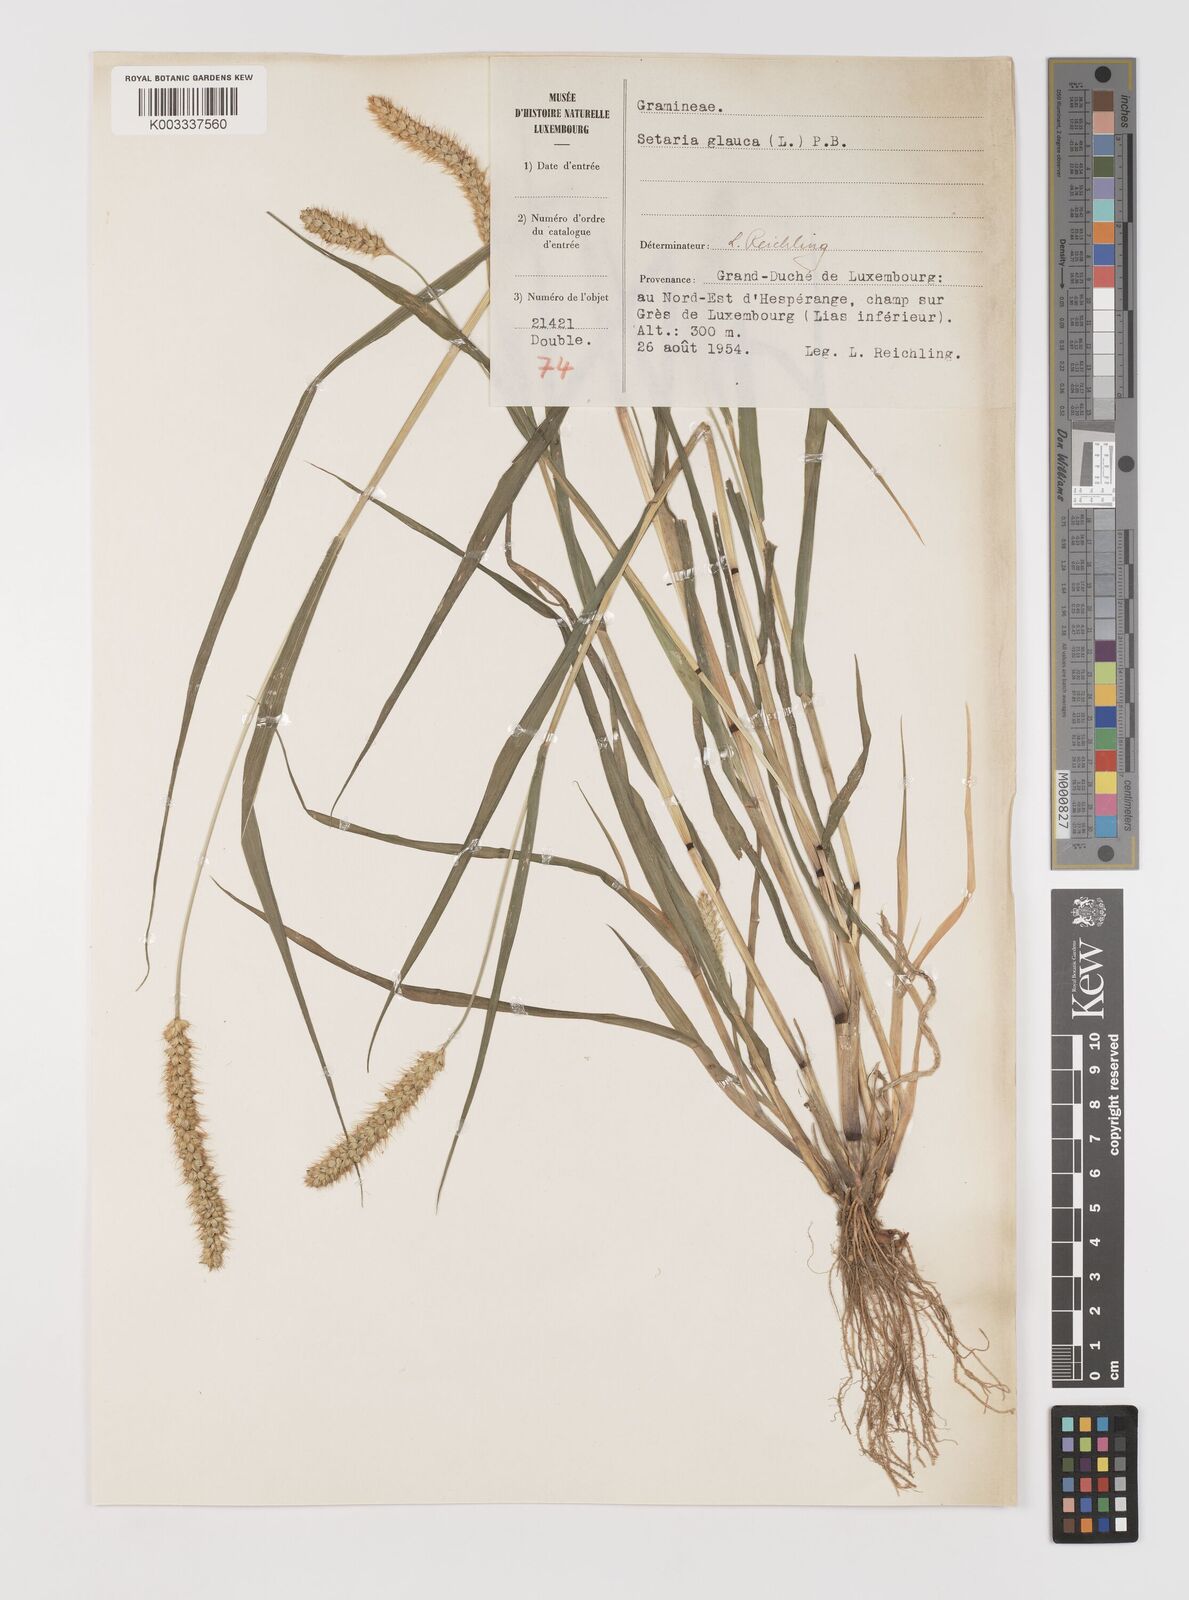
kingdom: Plantae
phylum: Tracheophyta
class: Liliopsida
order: Poales
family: Poaceae
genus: Setaria
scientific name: Setaria pumila
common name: Yellow bristle-grass
